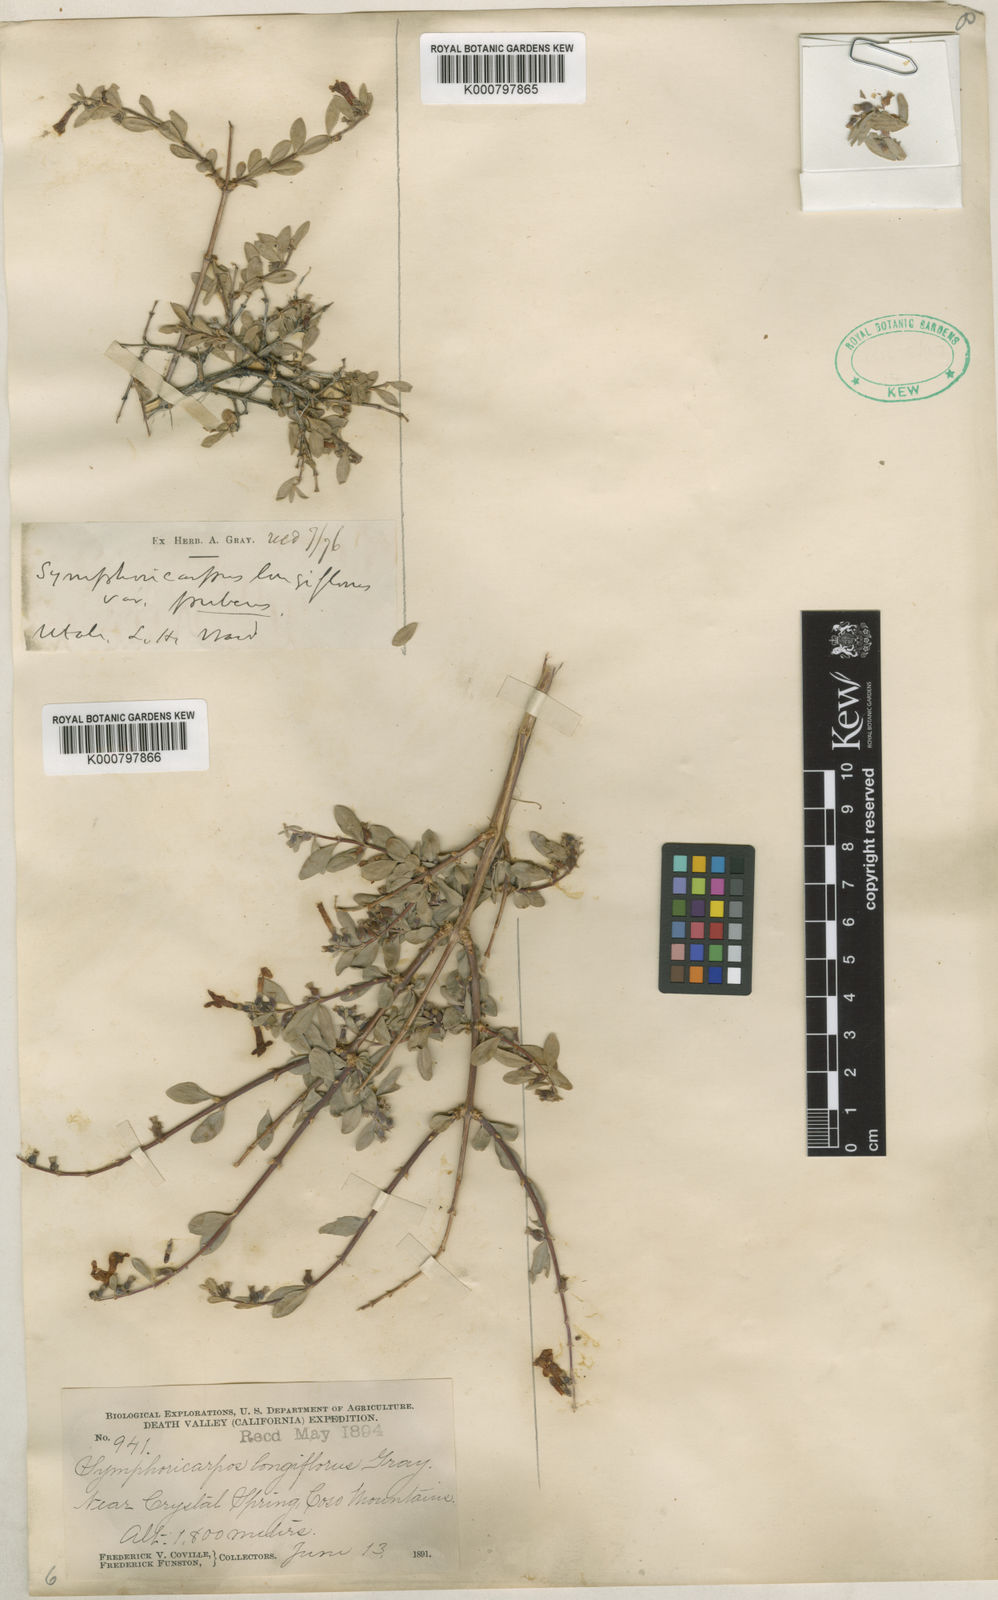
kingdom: Plantae
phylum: Tracheophyta
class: Magnoliopsida
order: Dipsacales
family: Caprifoliaceae
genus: Symphoricarpos
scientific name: Symphoricarpos longiflorus
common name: Fragrant snowberry
